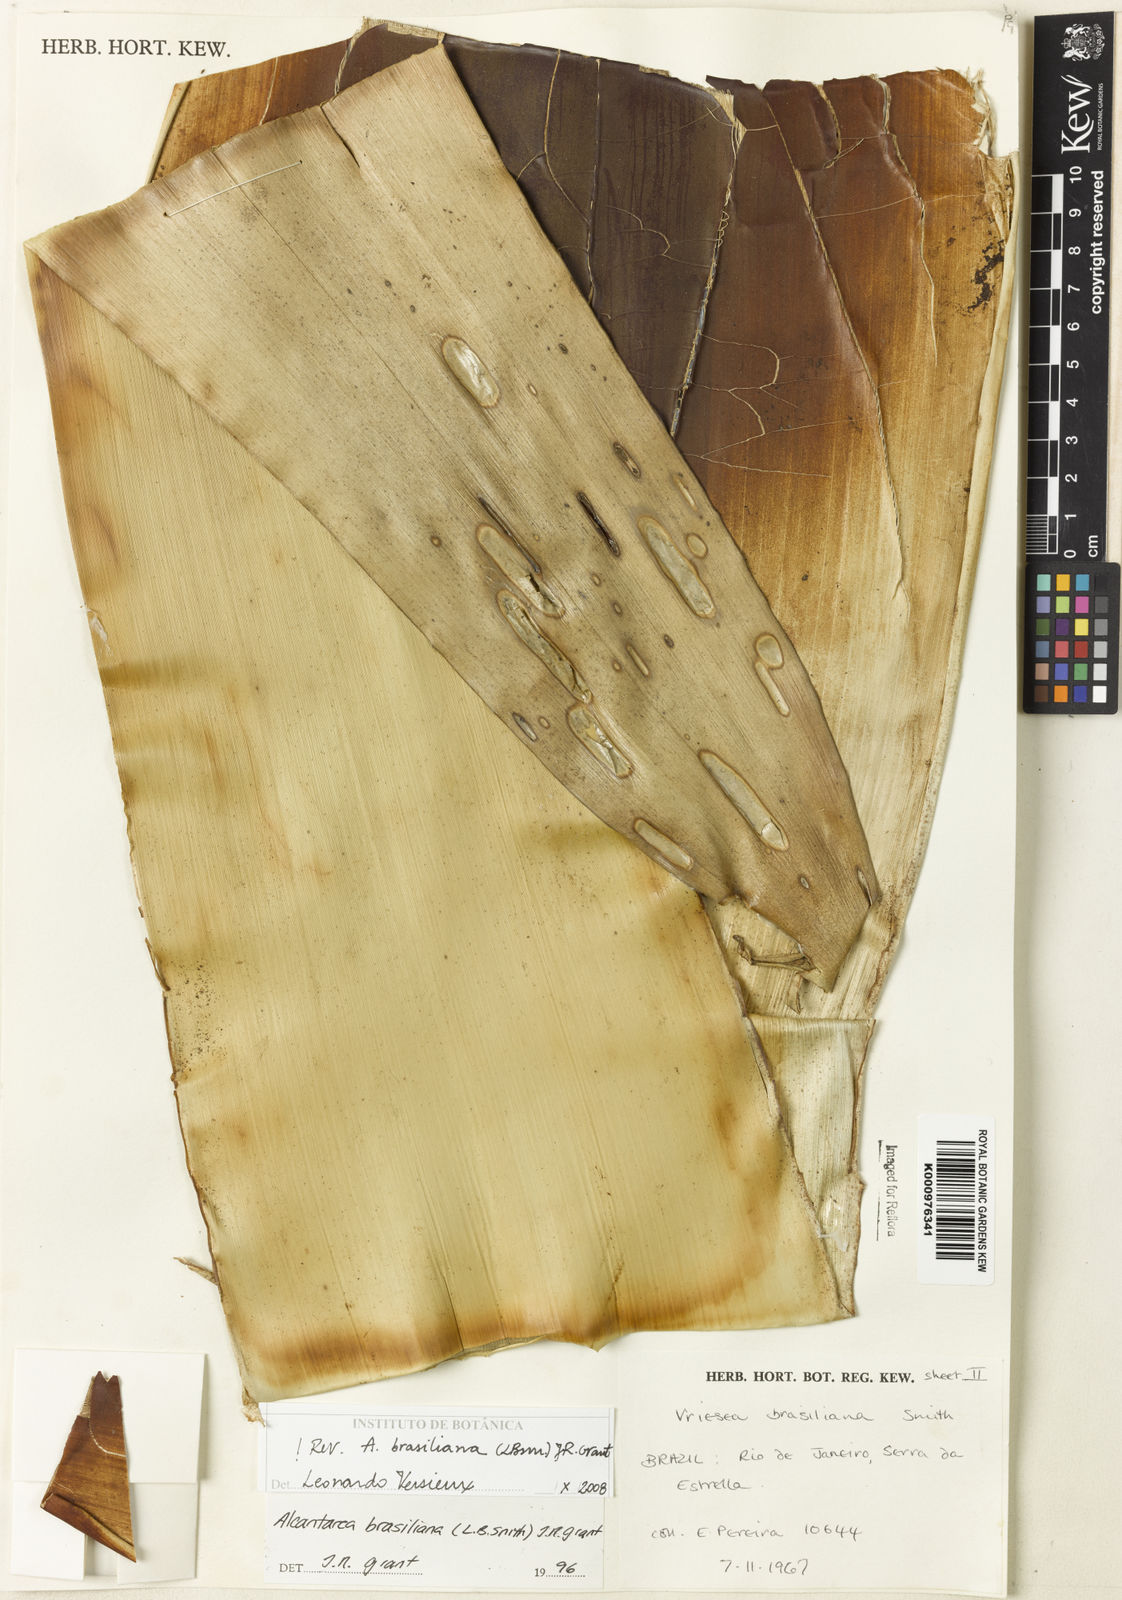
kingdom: Plantae
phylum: Tracheophyta
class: Liliopsida
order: Poales
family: Bromeliaceae
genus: Alcantarea
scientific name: Alcantarea brasiliana
